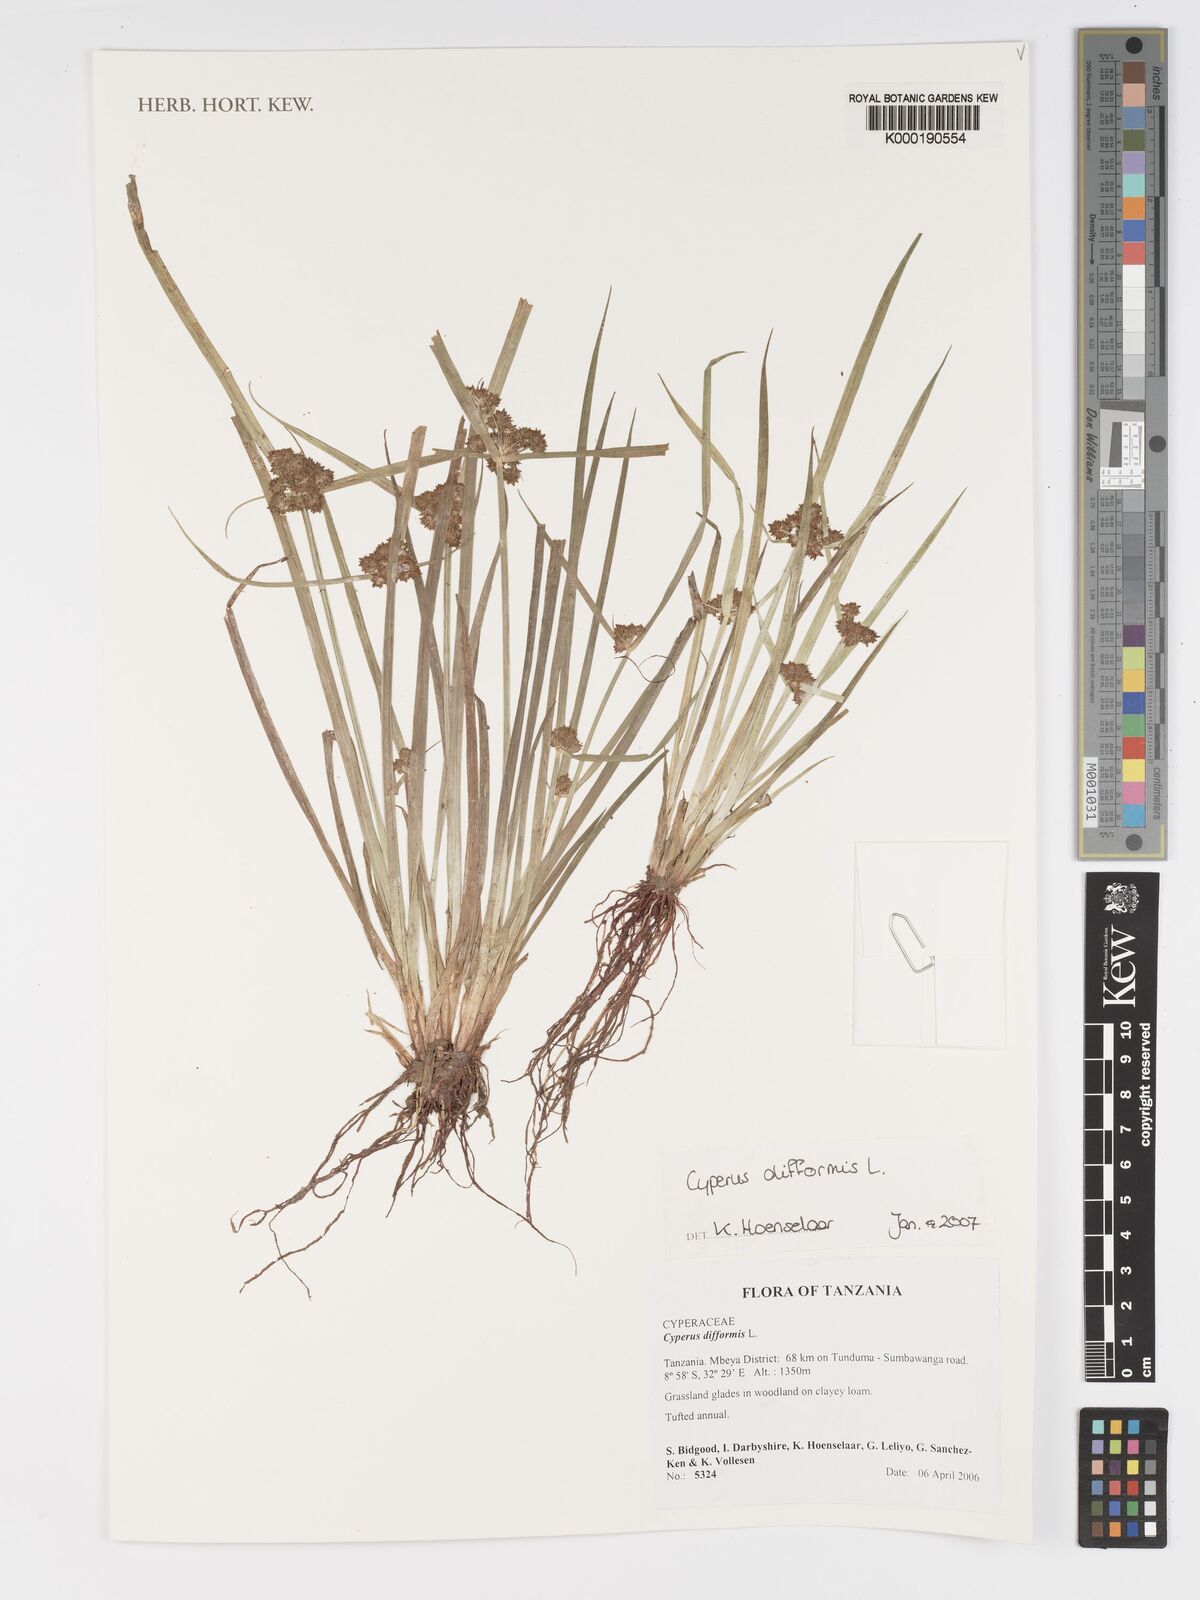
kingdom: Plantae
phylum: Tracheophyta
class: Liliopsida
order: Poales
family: Cyperaceae
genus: Cyperus
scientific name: Cyperus difformis
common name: Variable flatsedge
